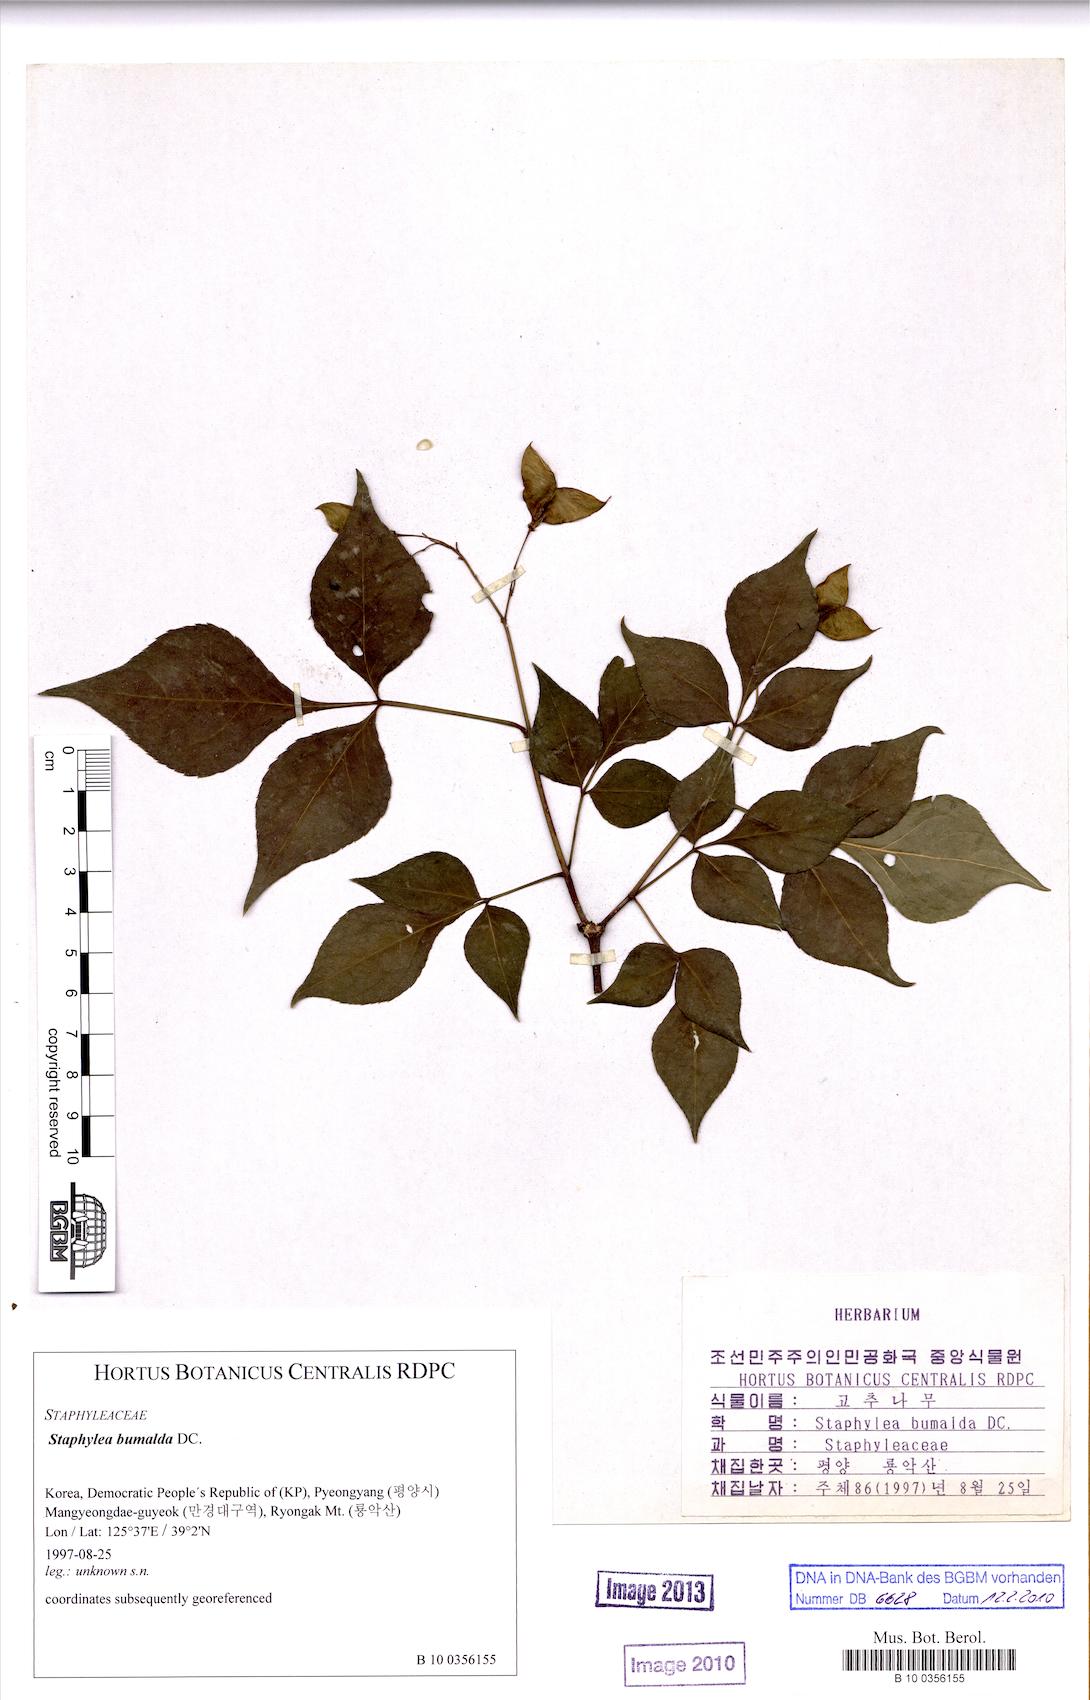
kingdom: Plantae
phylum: Tracheophyta
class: Magnoliopsida
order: Crossosomatales
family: Staphyleaceae
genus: Staphylea
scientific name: Staphylea bumalda
